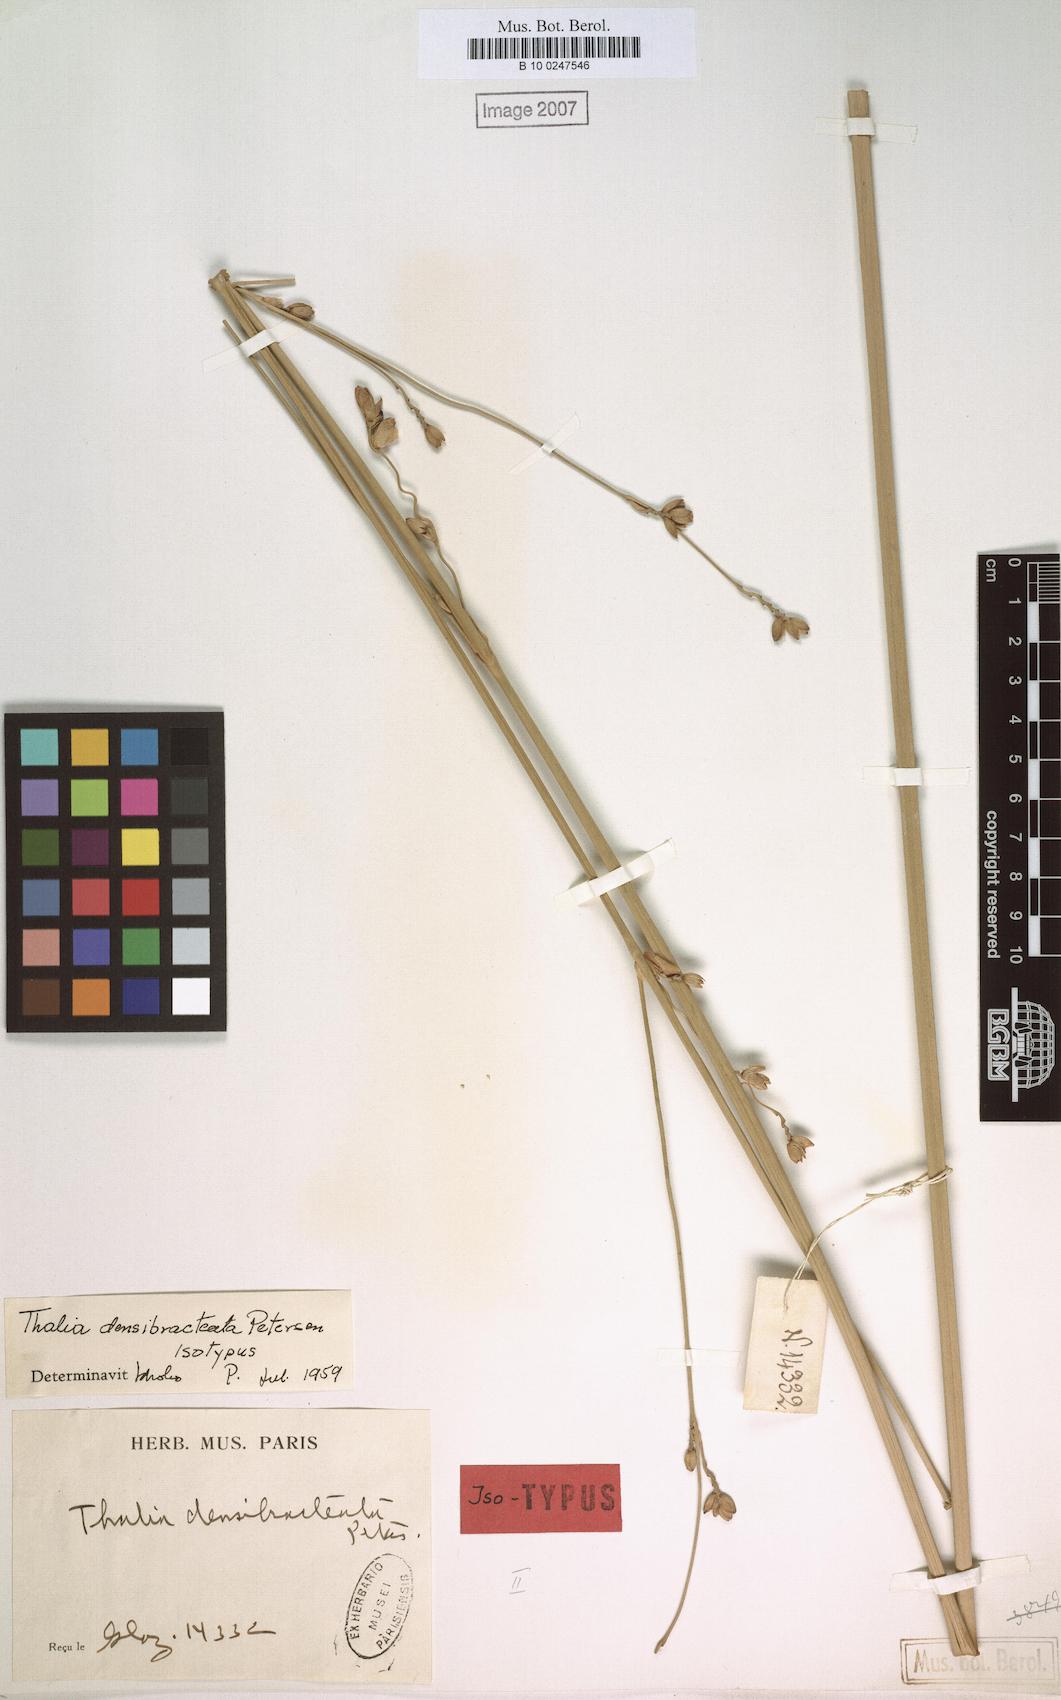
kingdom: Plantae
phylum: Tracheophyta
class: Liliopsida
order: Zingiberales
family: Marantaceae
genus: Thalia
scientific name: Thalia densibracteata
